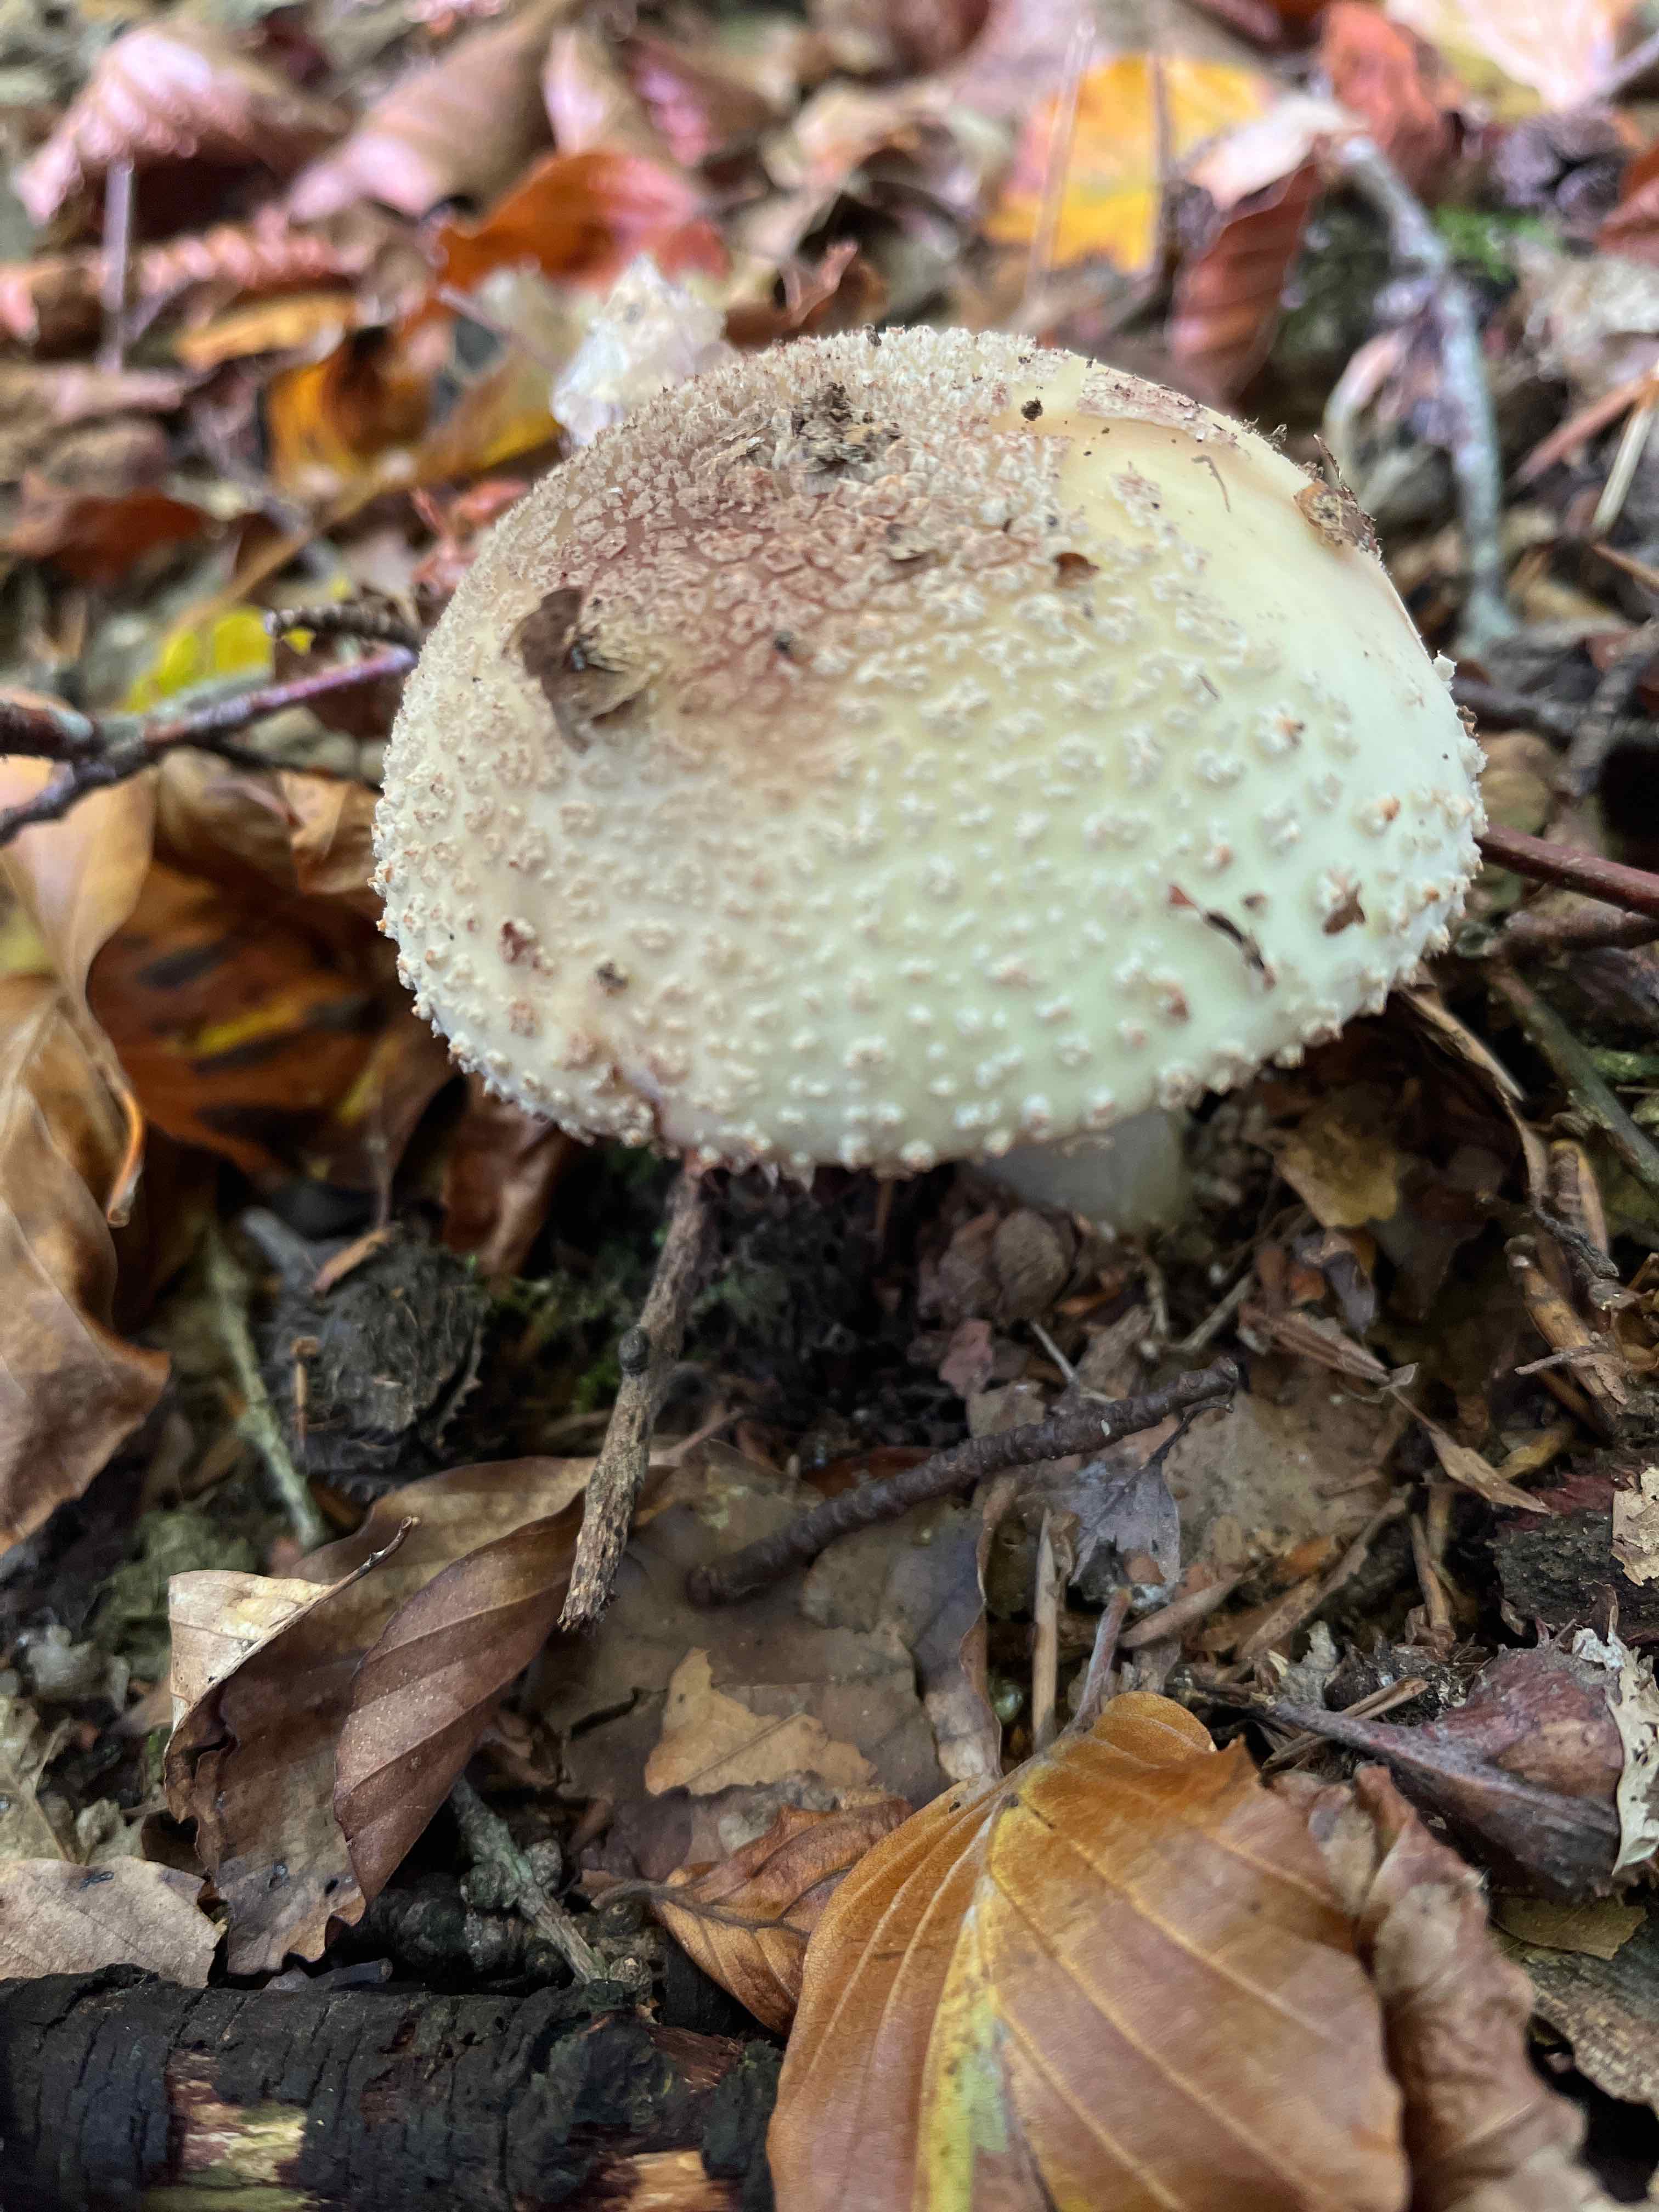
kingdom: Fungi
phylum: Basidiomycota
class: Agaricomycetes
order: Agaricales
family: Amanitaceae
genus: Amanita
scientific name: Amanita rubescens
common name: rødmende fluesvamp
